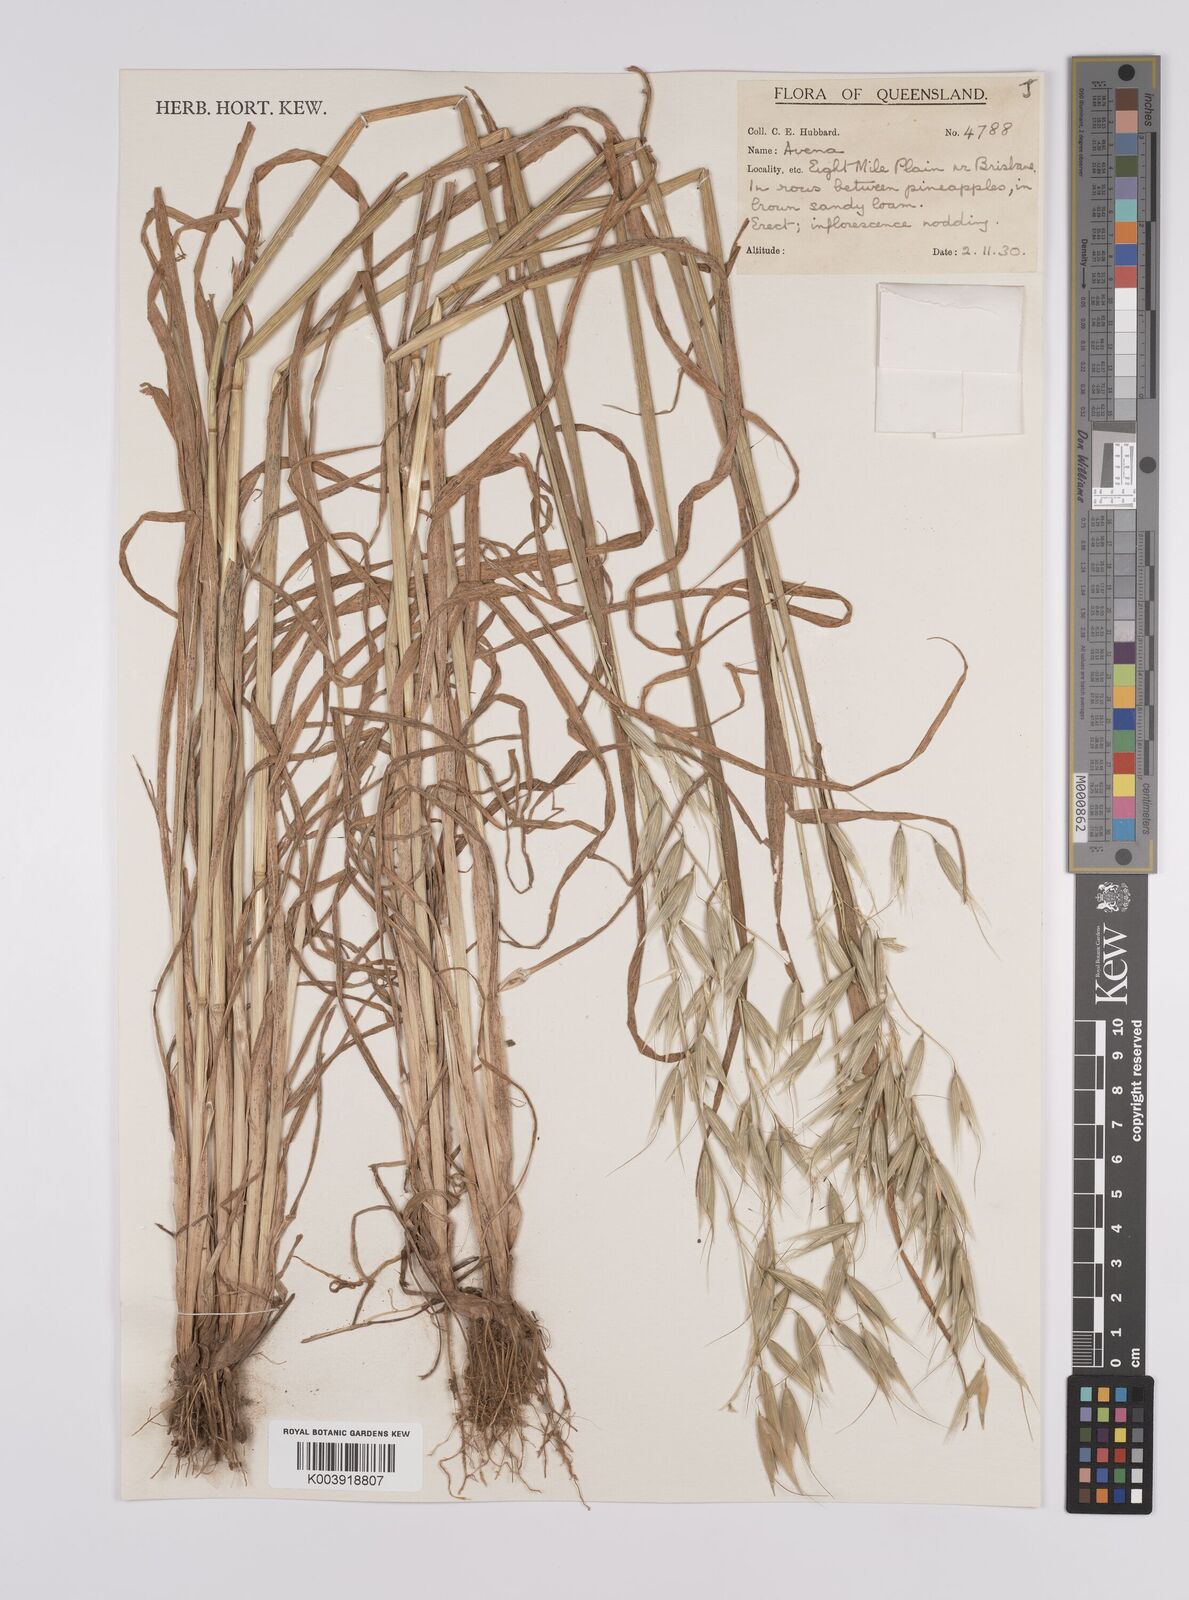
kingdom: Plantae
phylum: Tracheophyta
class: Liliopsida
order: Poales
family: Poaceae
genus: Avena
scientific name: Avena
